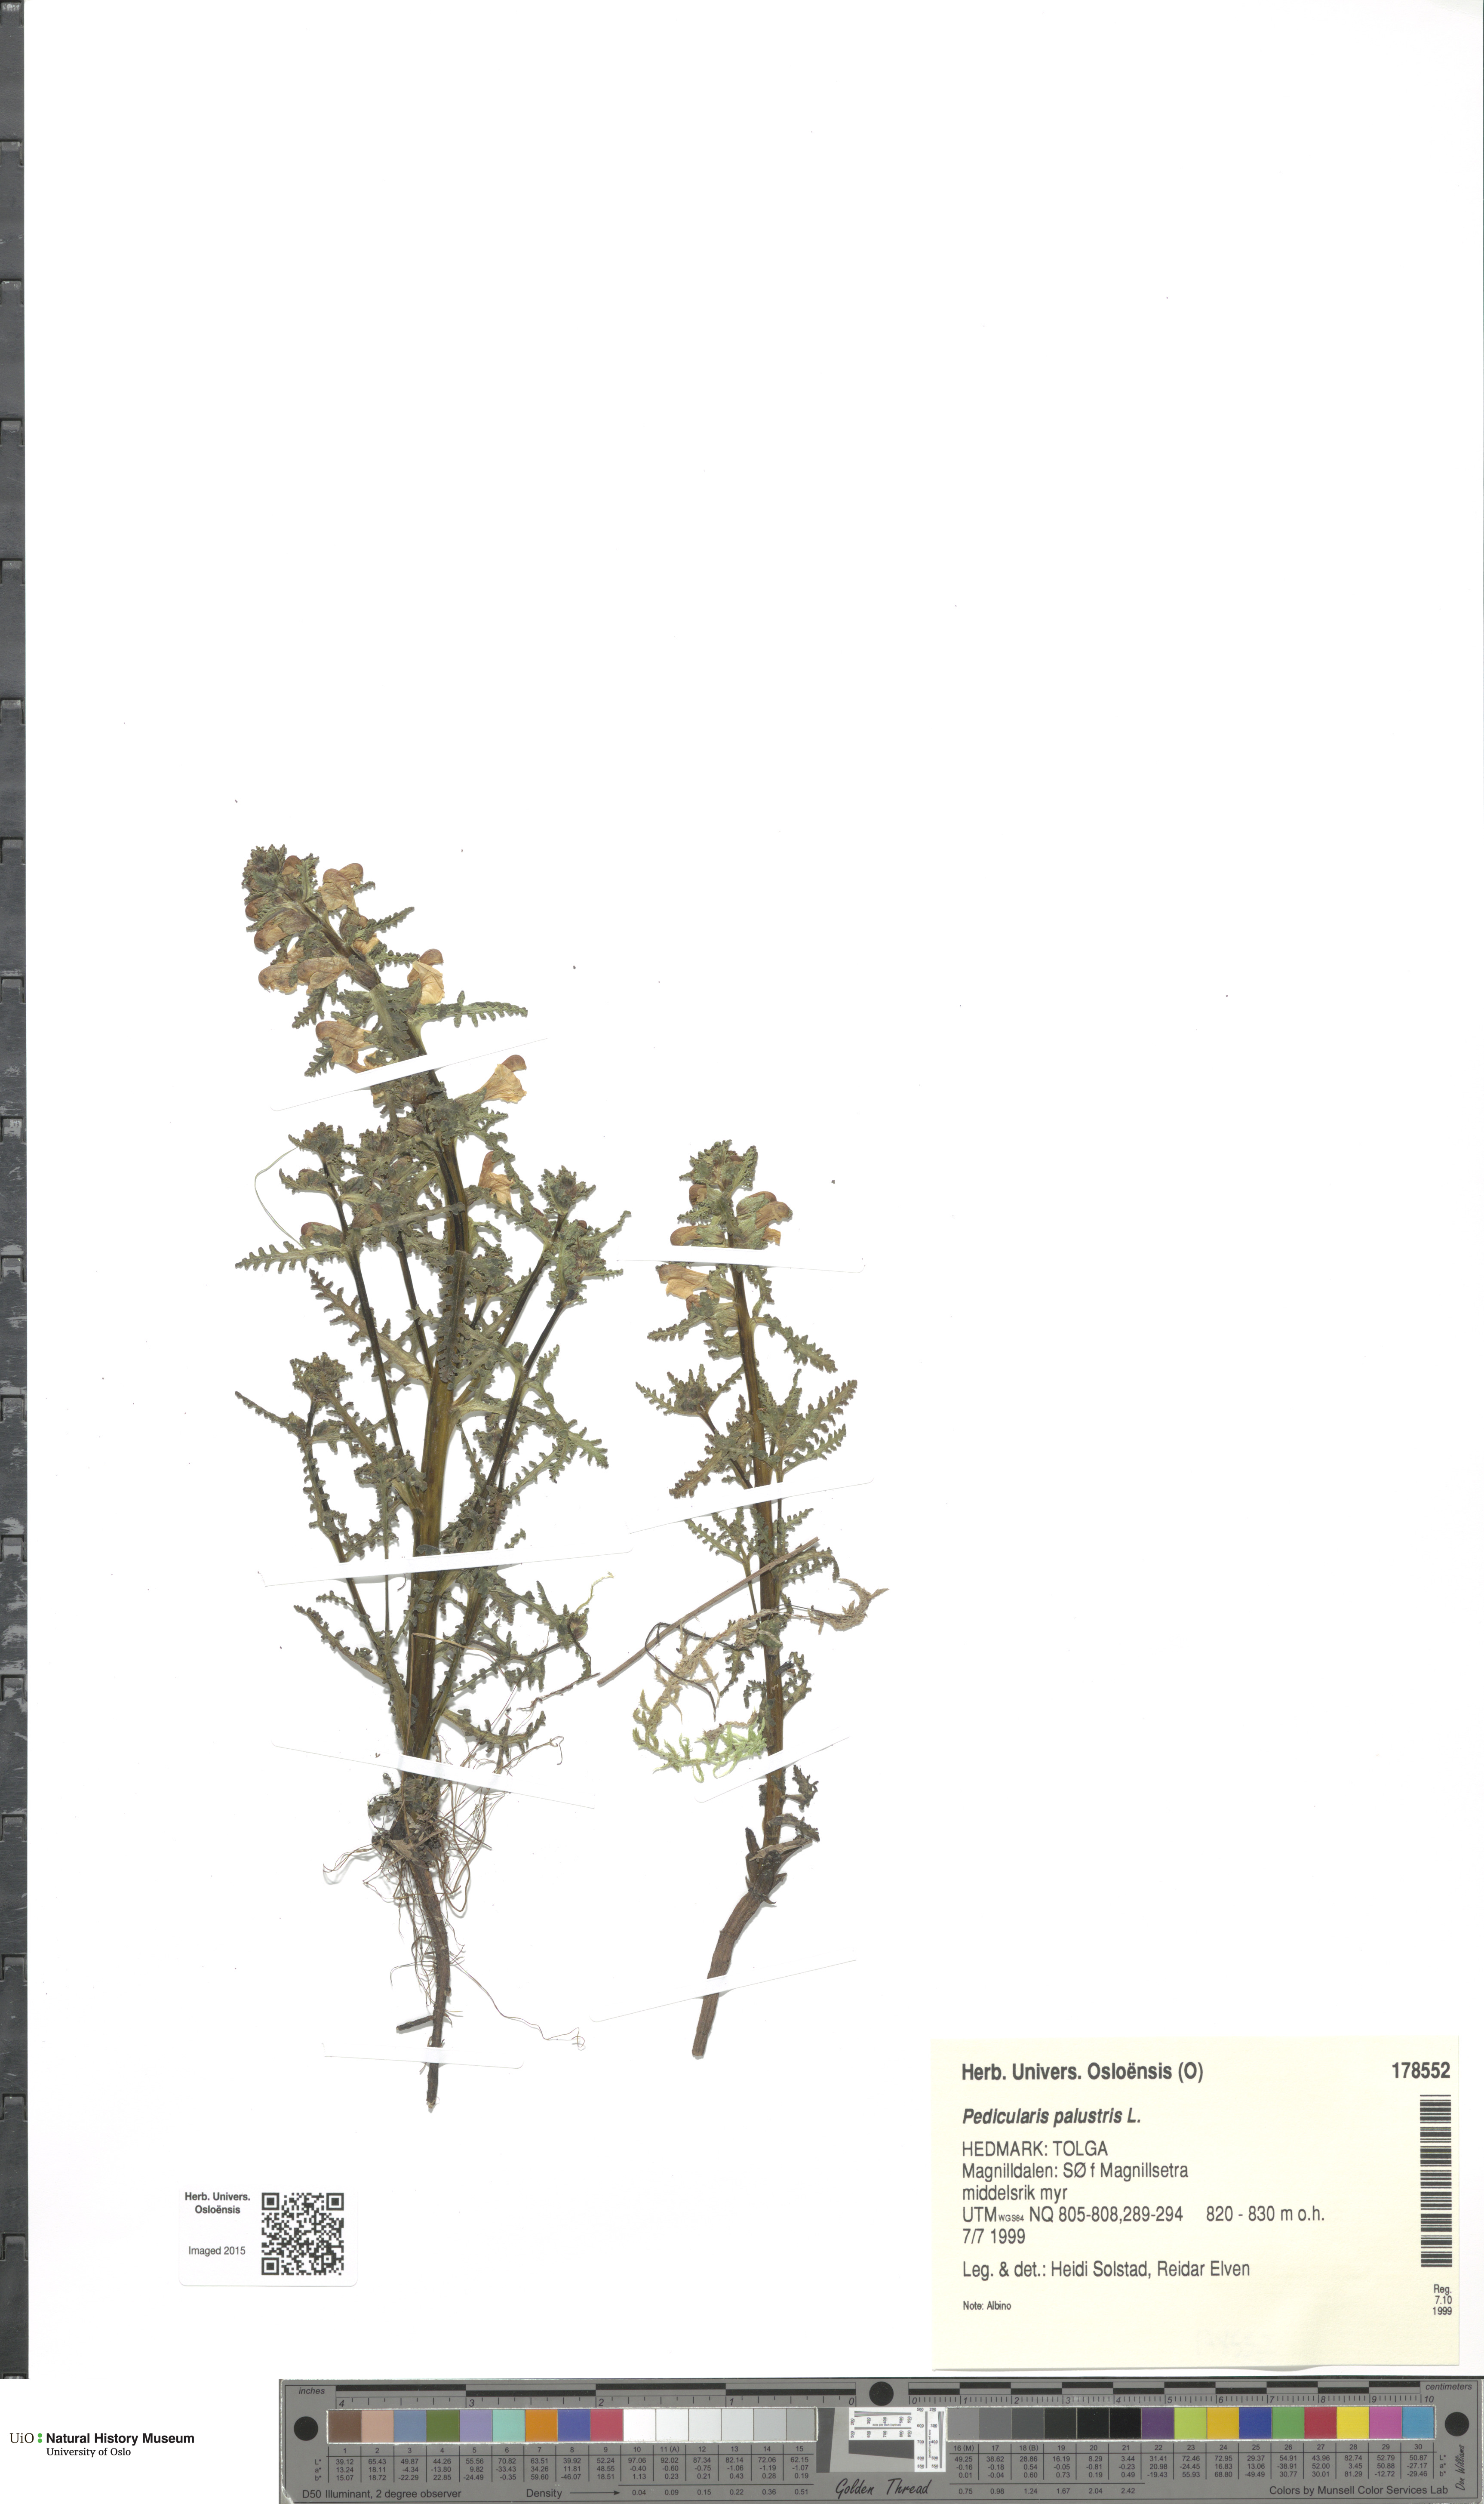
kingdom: Plantae
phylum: Tracheophyta
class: Magnoliopsida
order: Lamiales
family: Orobanchaceae
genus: Pedicularis
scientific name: Pedicularis palustris
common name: Marsh lousewort
